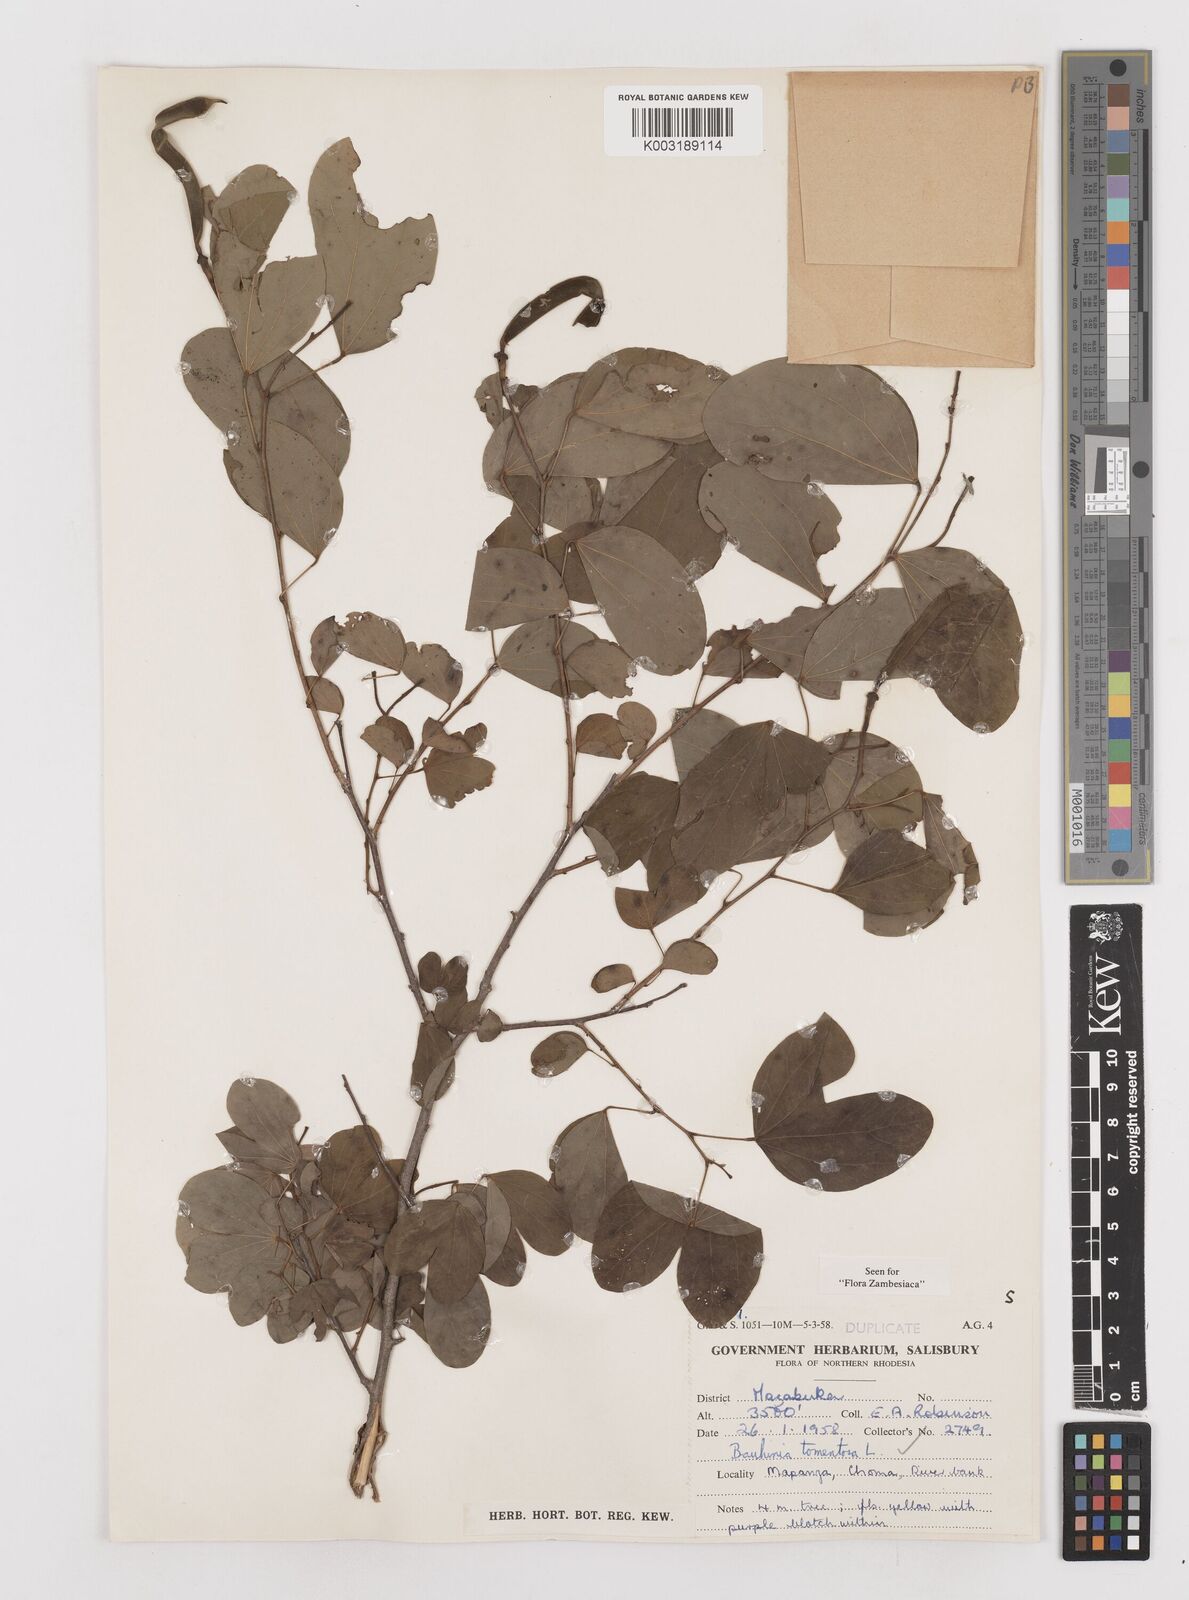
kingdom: Plantae
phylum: Tracheophyta
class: Magnoliopsida
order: Fabales
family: Fabaceae
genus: Bauhinia
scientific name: Bauhinia tomentosa
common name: Bell bauhinia
